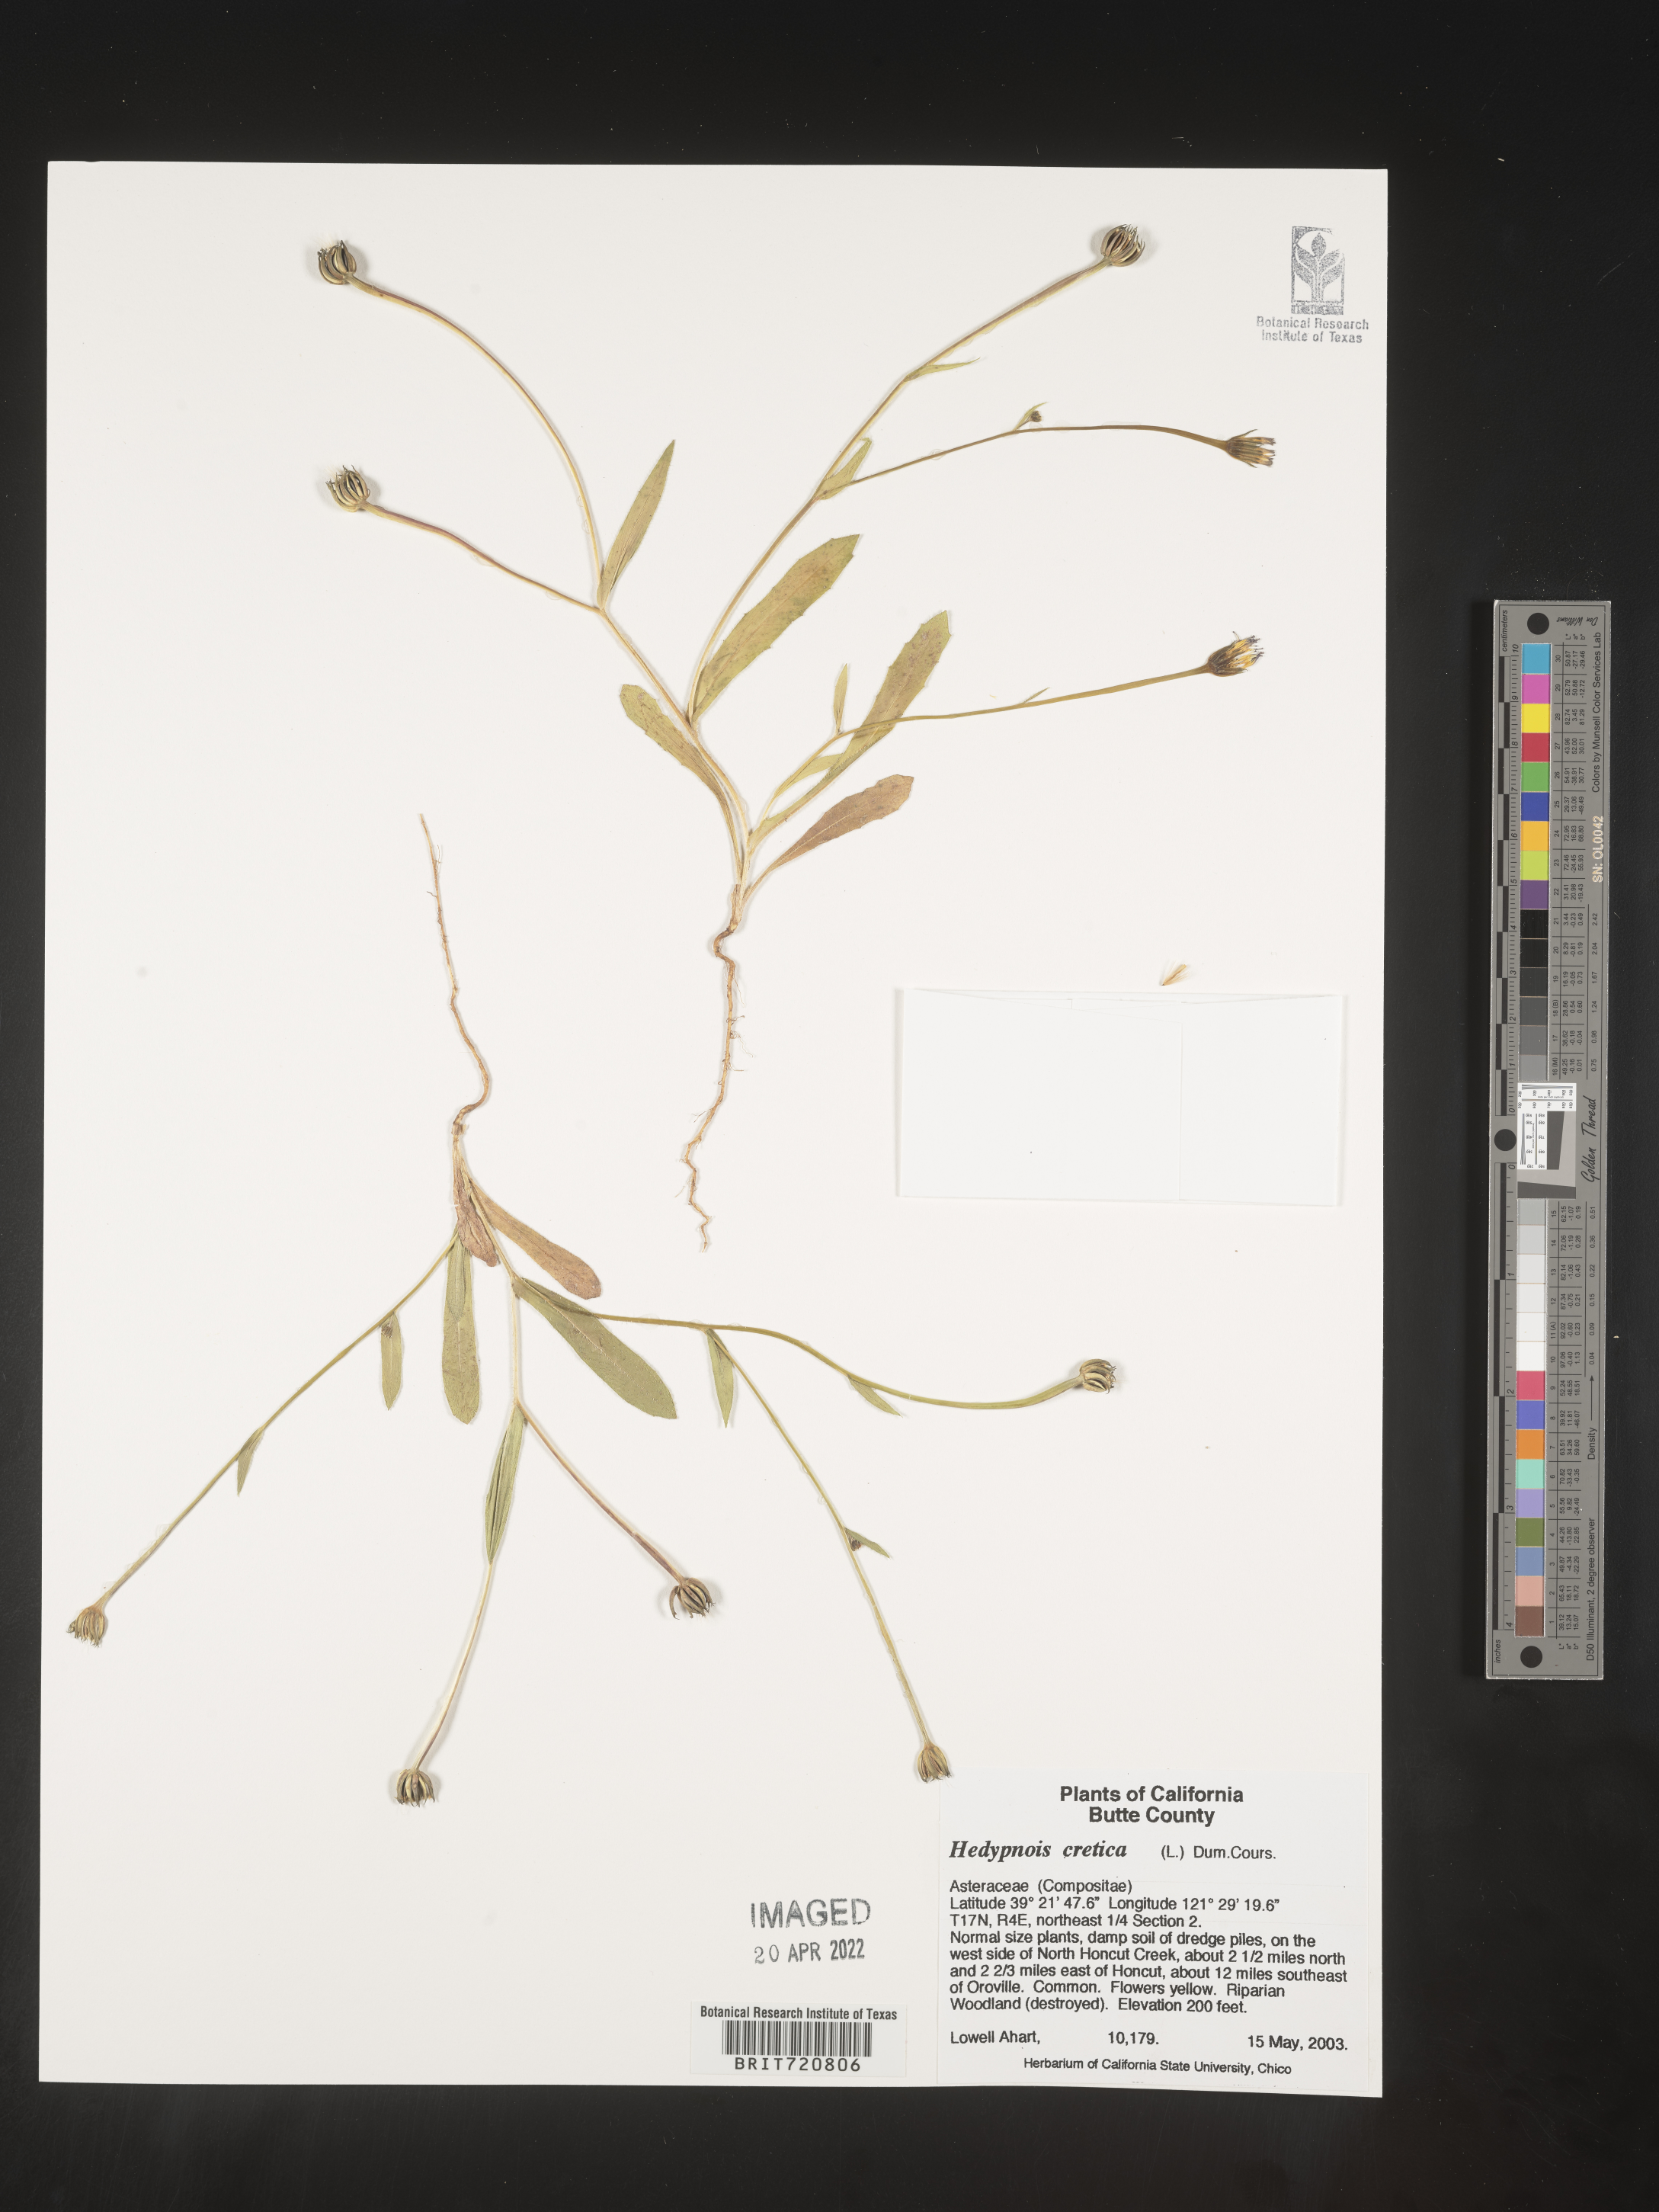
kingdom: Plantae
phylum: Tracheophyta
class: Magnoliopsida
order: Asterales
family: Asteraceae
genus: Hedypnois
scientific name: Hedypnois
